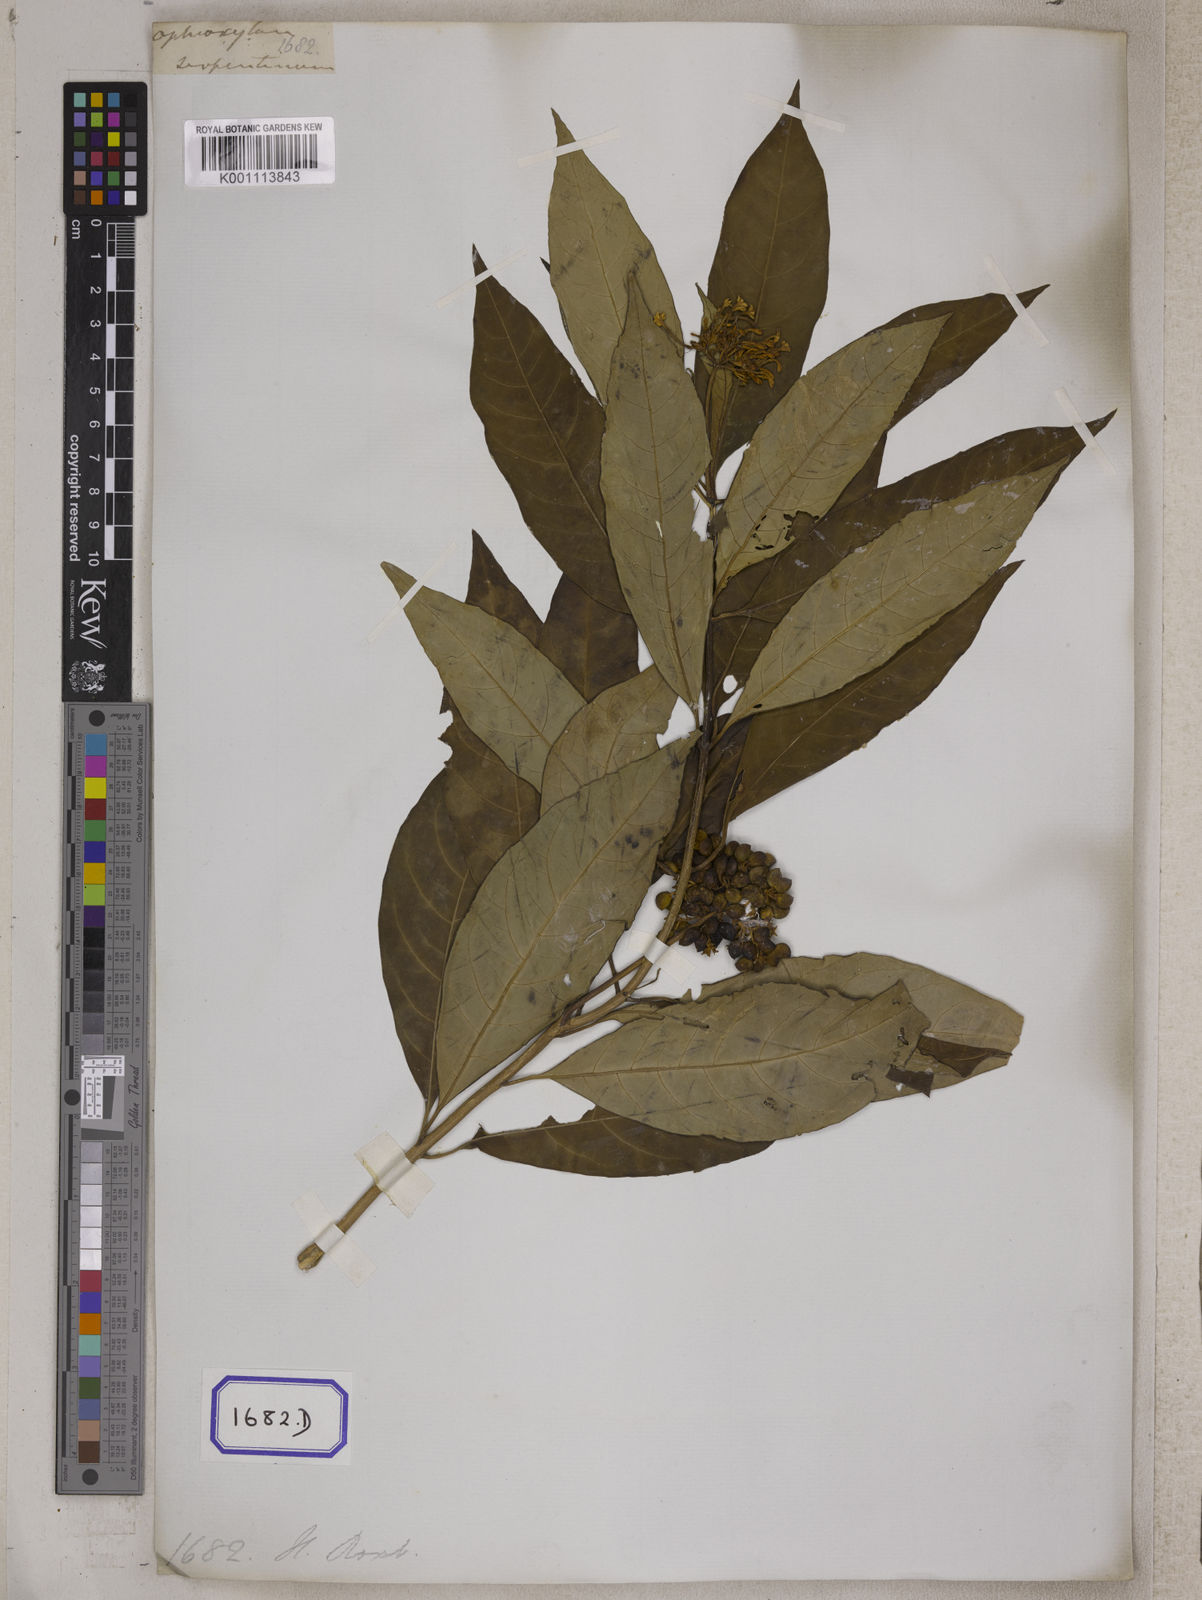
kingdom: Plantae
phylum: Tracheophyta
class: Magnoliopsida
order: Gentianales
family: Apocynaceae
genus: Rauvolfia
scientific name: Rauvolfia serpentina
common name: Ajmaline
